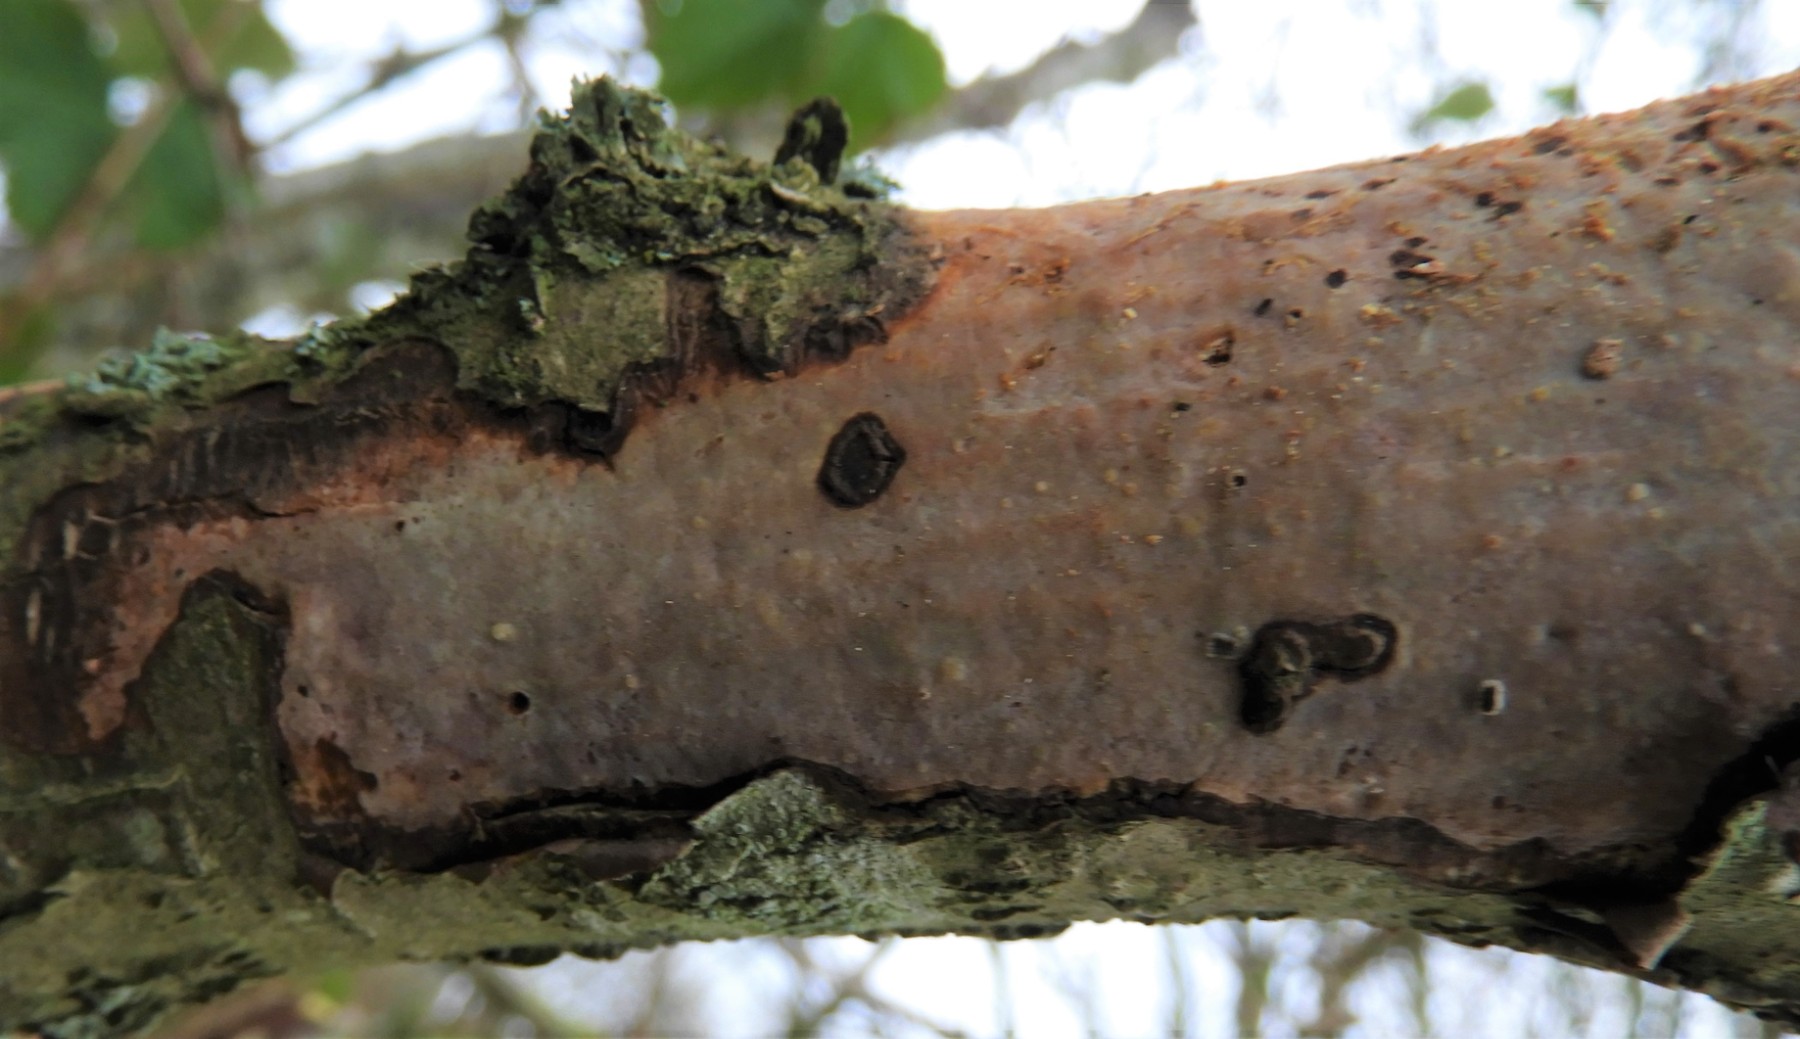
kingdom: Fungi
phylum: Basidiomycota
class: Agaricomycetes
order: Corticiales
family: Vuilleminiaceae
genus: Vuilleminia
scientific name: Vuilleminia coryli
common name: hassel-barksprænger
